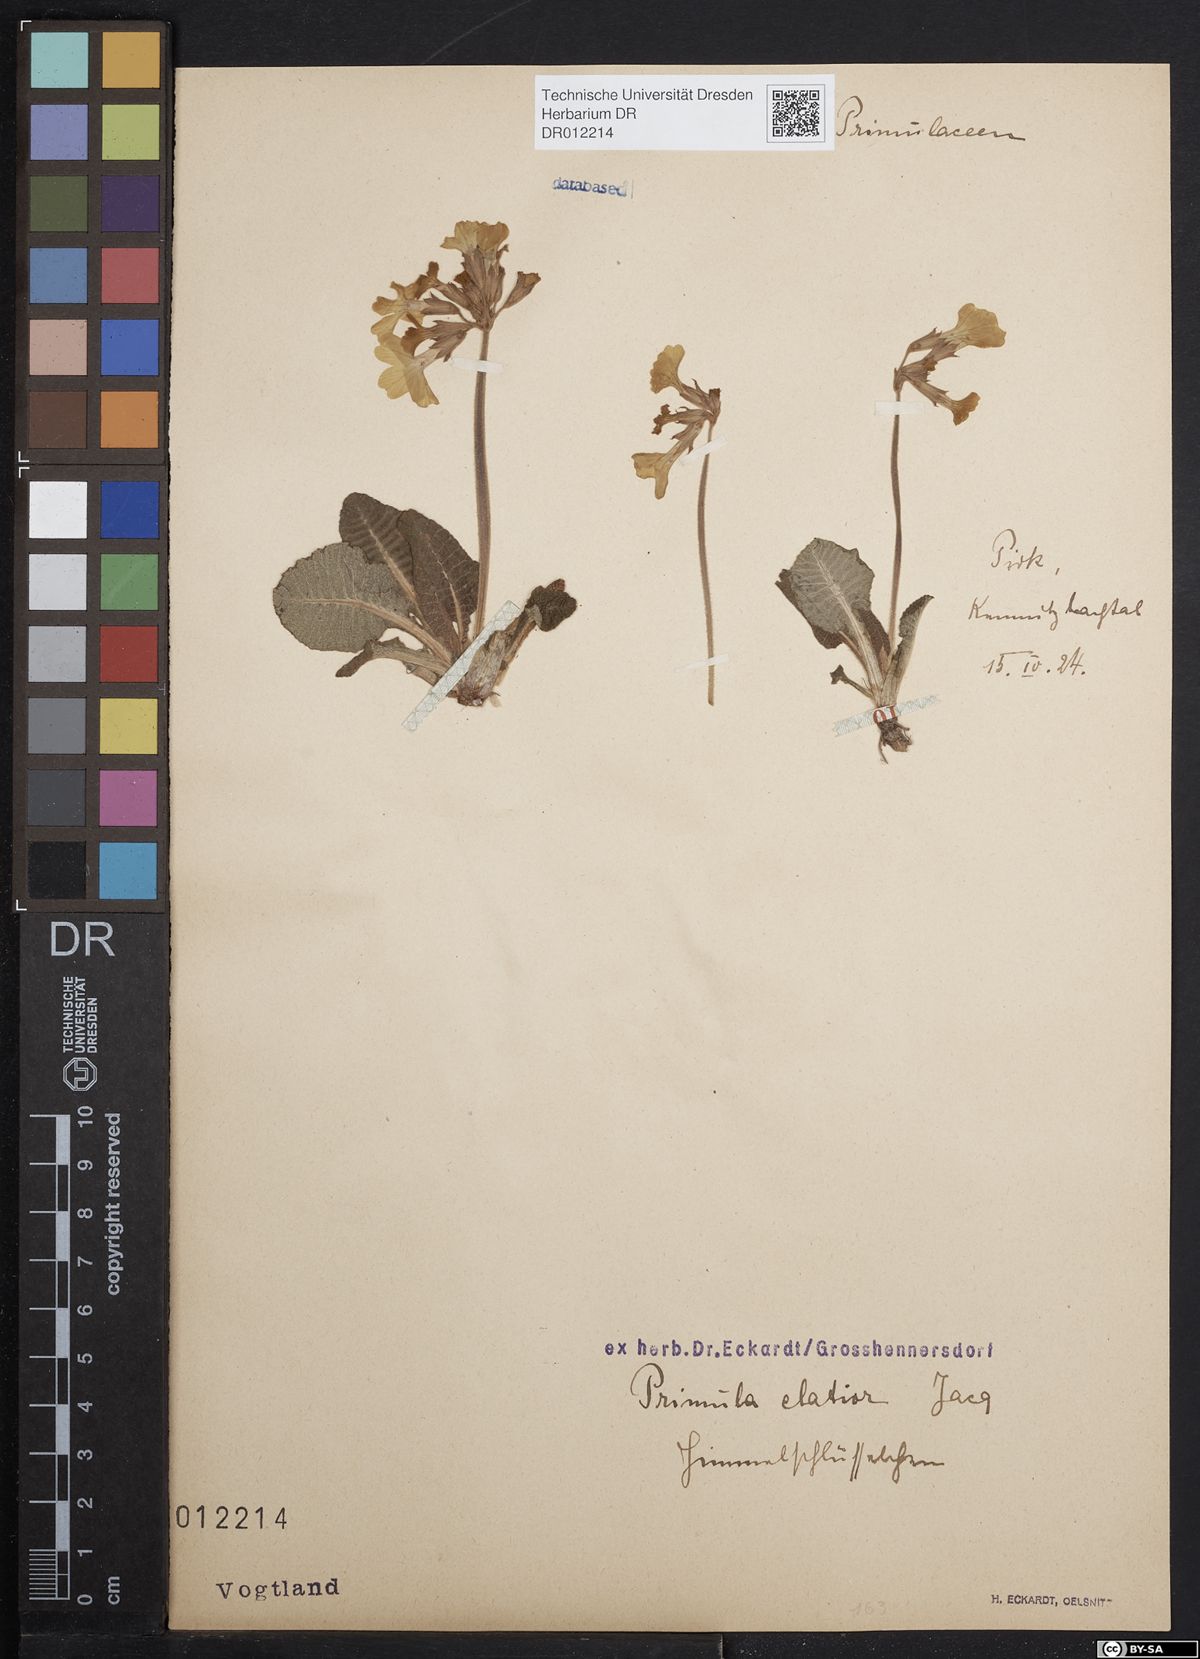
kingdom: Plantae
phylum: Tracheophyta
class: Magnoliopsida
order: Ericales
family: Primulaceae
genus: Primula
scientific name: Primula elatior
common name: Oxlip
